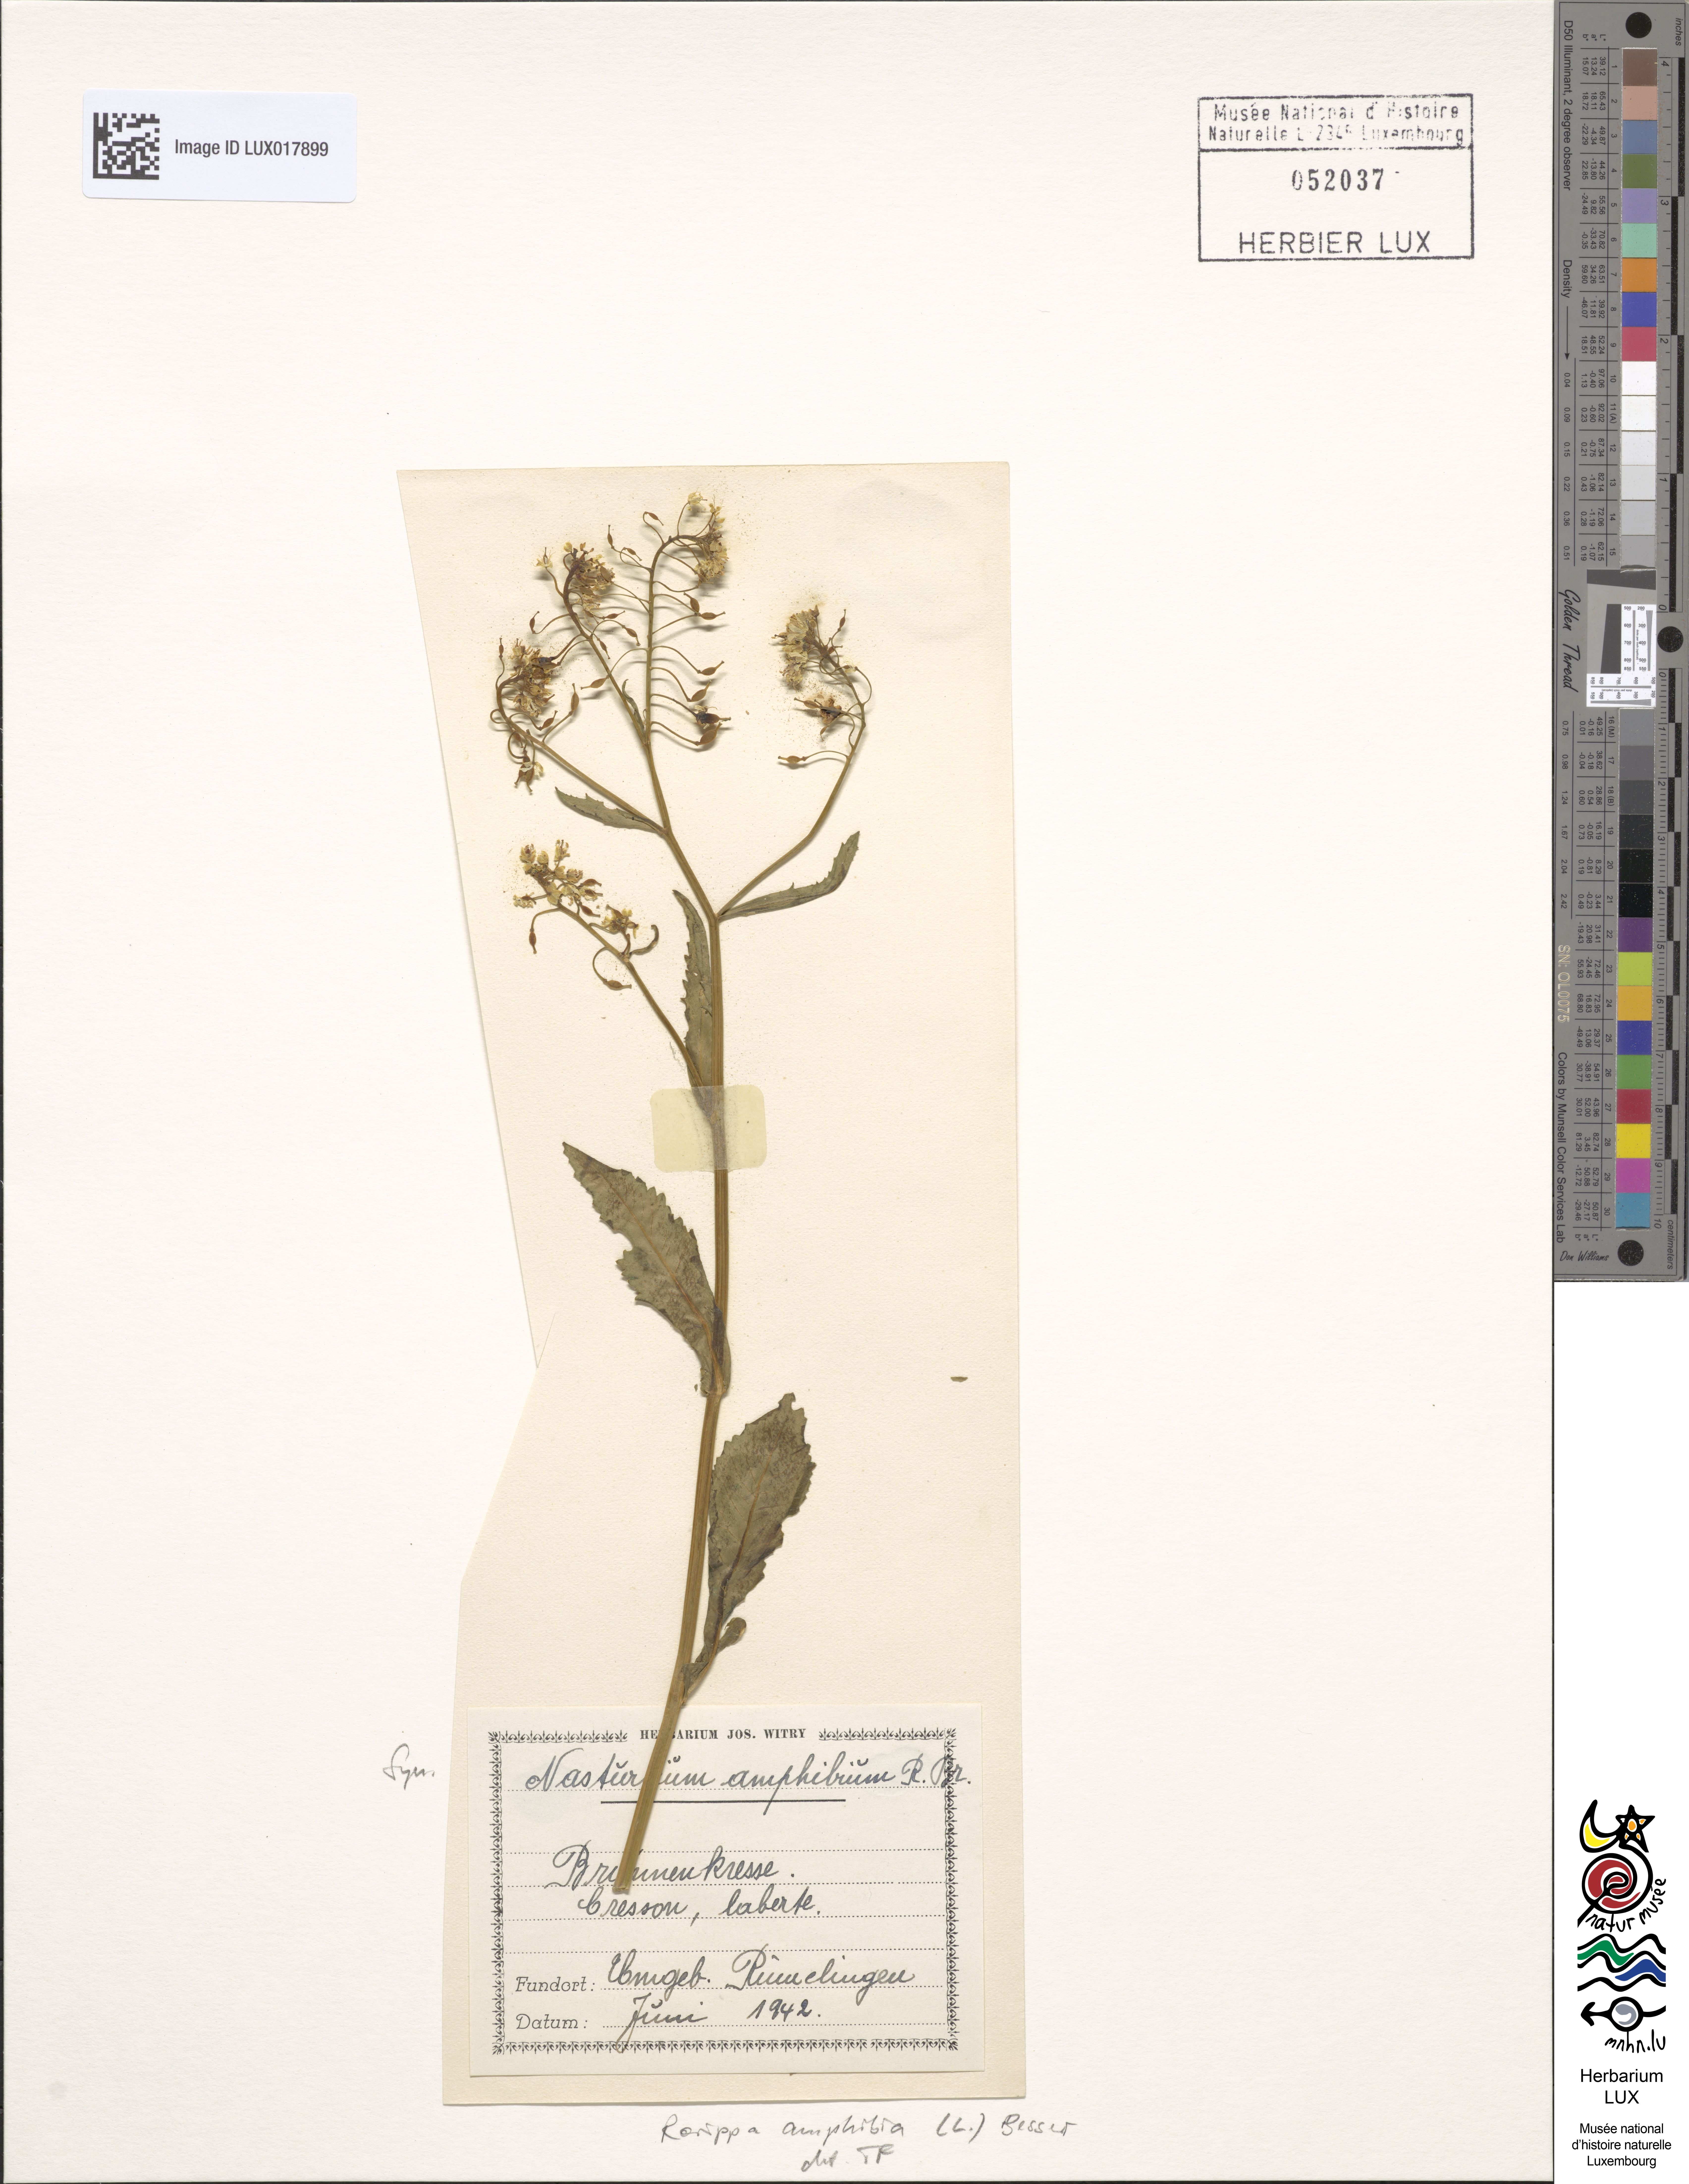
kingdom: Plantae
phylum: Tracheophyta
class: Magnoliopsida
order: Brassicales
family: Brassicaceae
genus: Rorippa
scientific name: Rorippa amphibia
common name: Great yellow-cress
